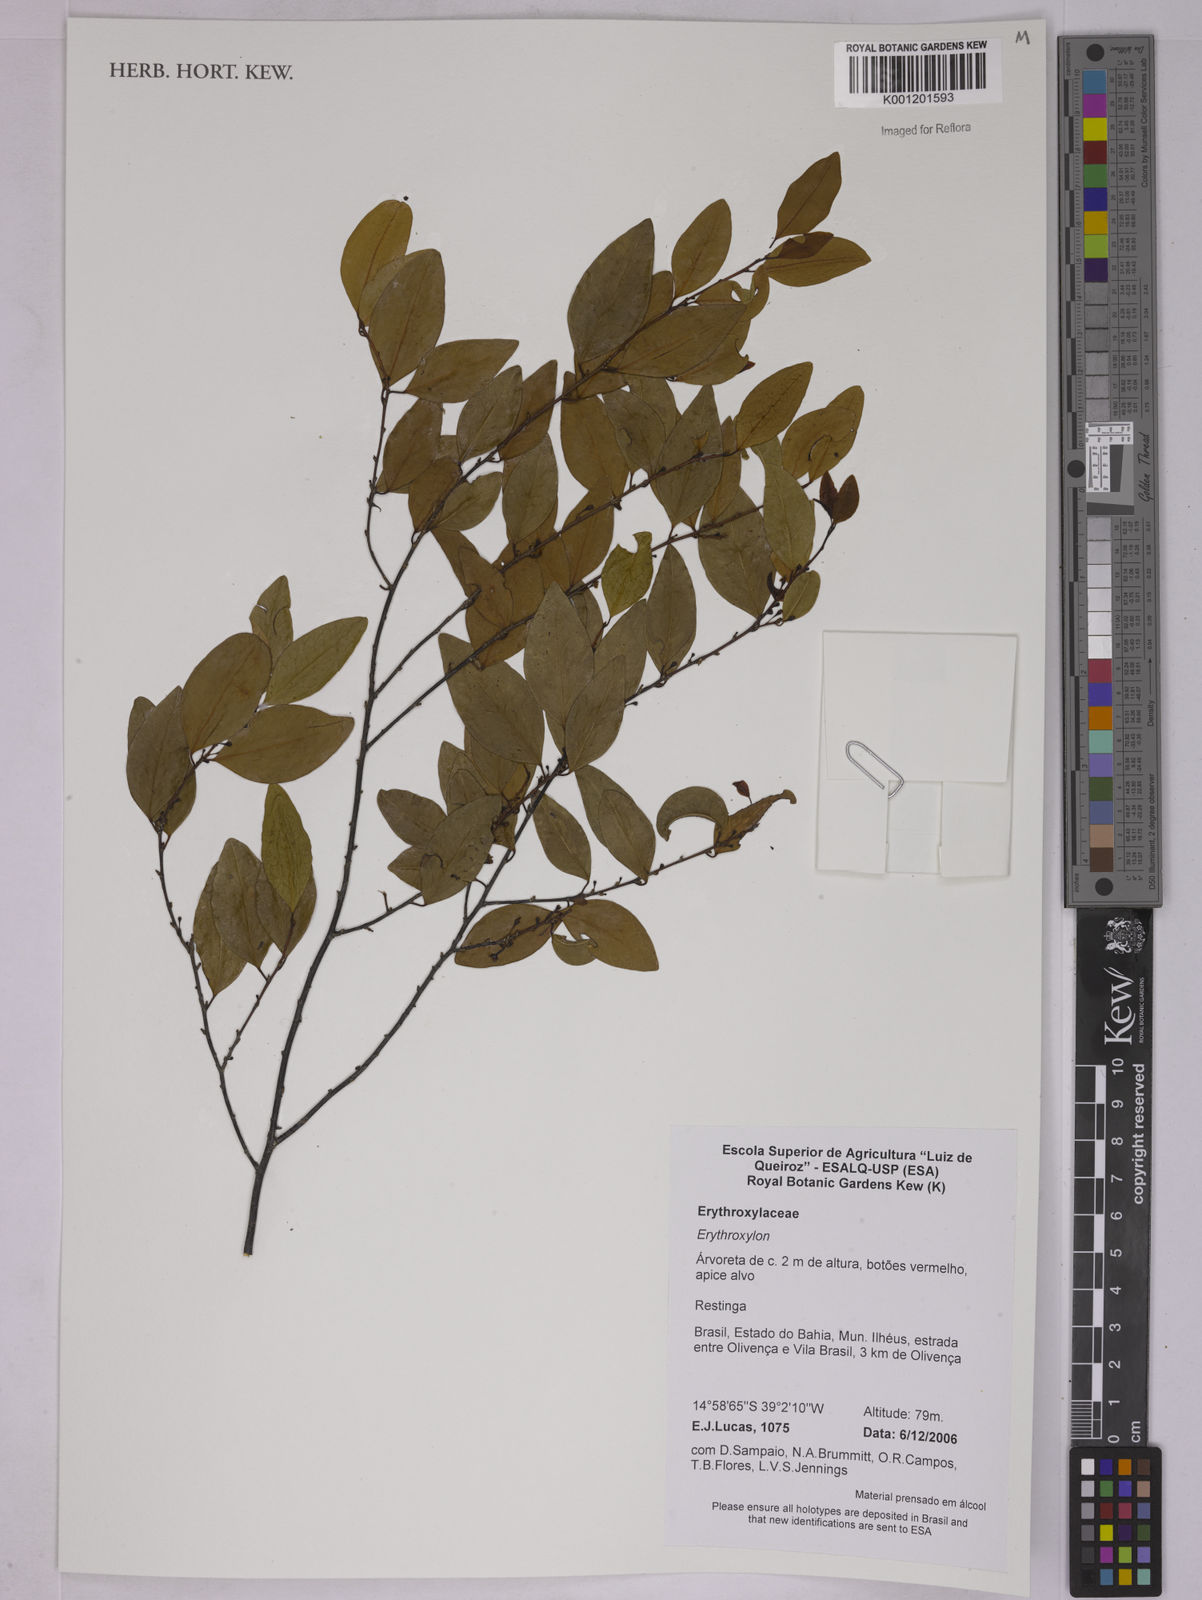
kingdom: Plantae
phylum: Tracheophyta
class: Magnoliopsida
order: Malpighiales
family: Erythroxylaceae
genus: Erythroxylum
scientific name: Erythroxylum
